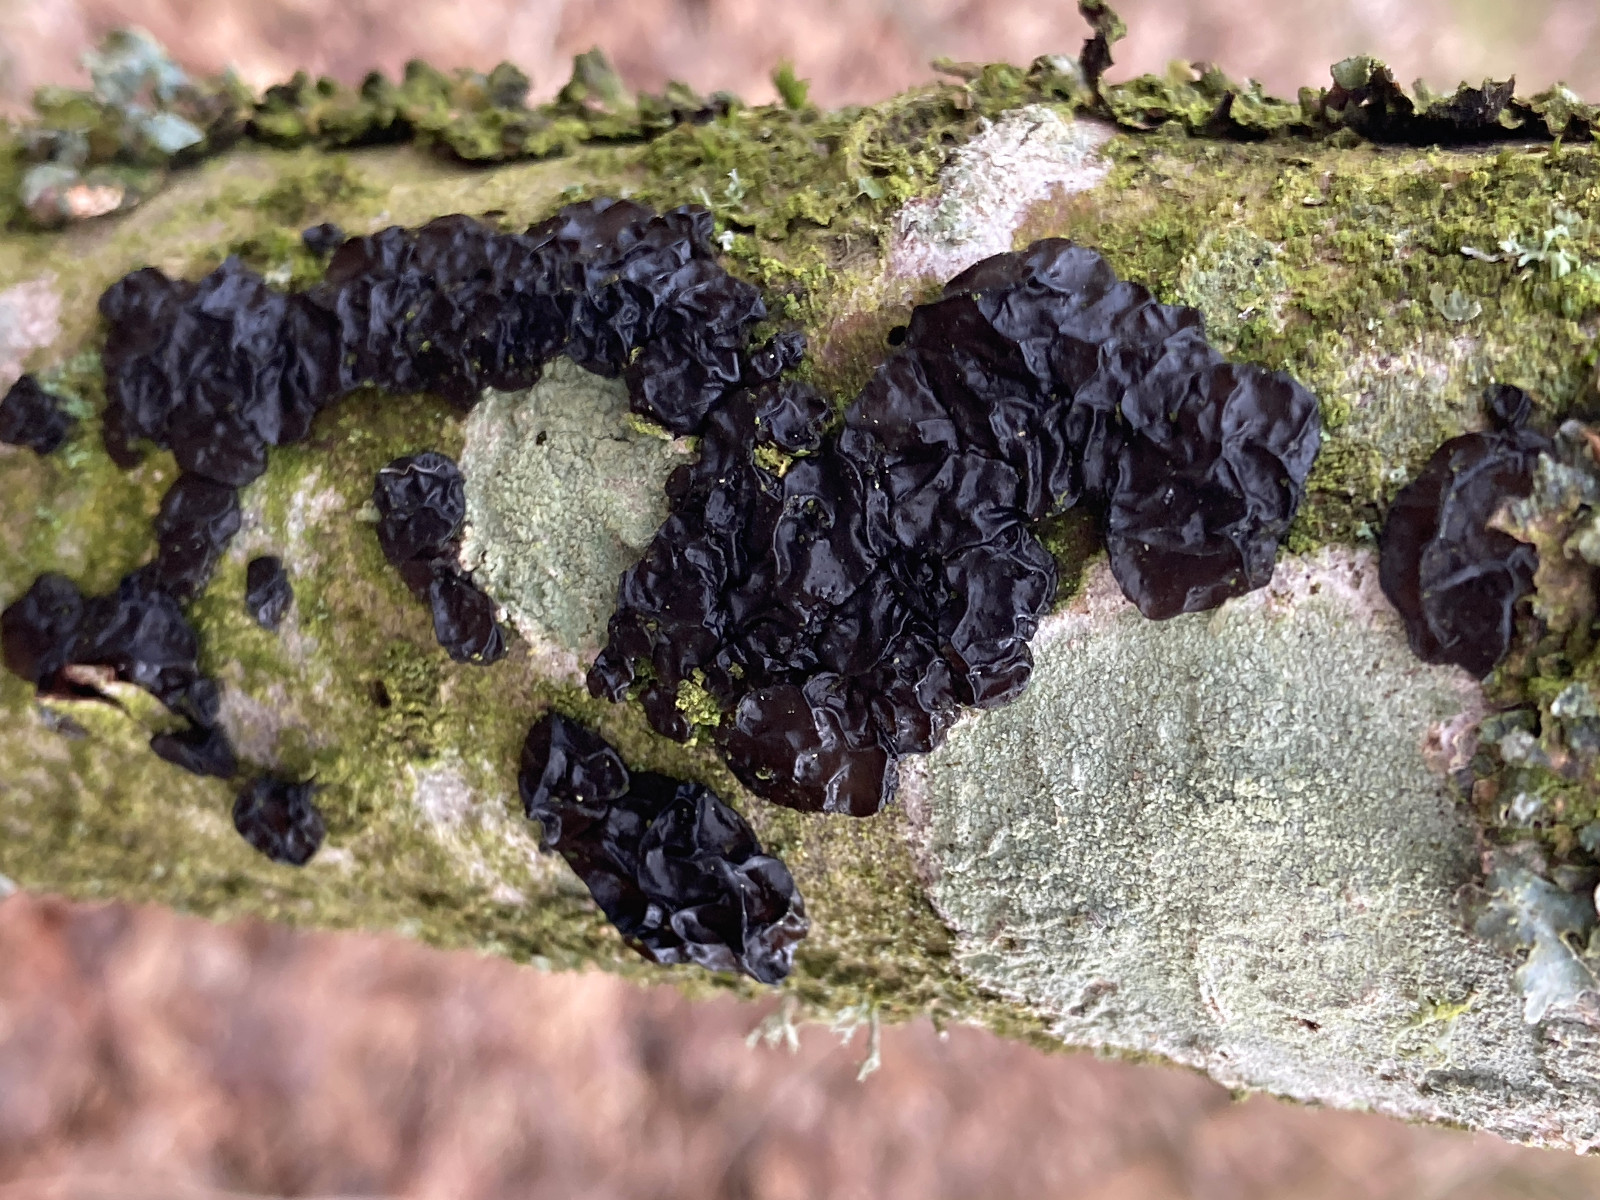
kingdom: Fungi
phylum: Basidiomycota
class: Agaricomycetes
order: Auriculariales
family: Auriculariaceae
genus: Exidia
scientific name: Exidia nigricans
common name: almindelig bævretop
